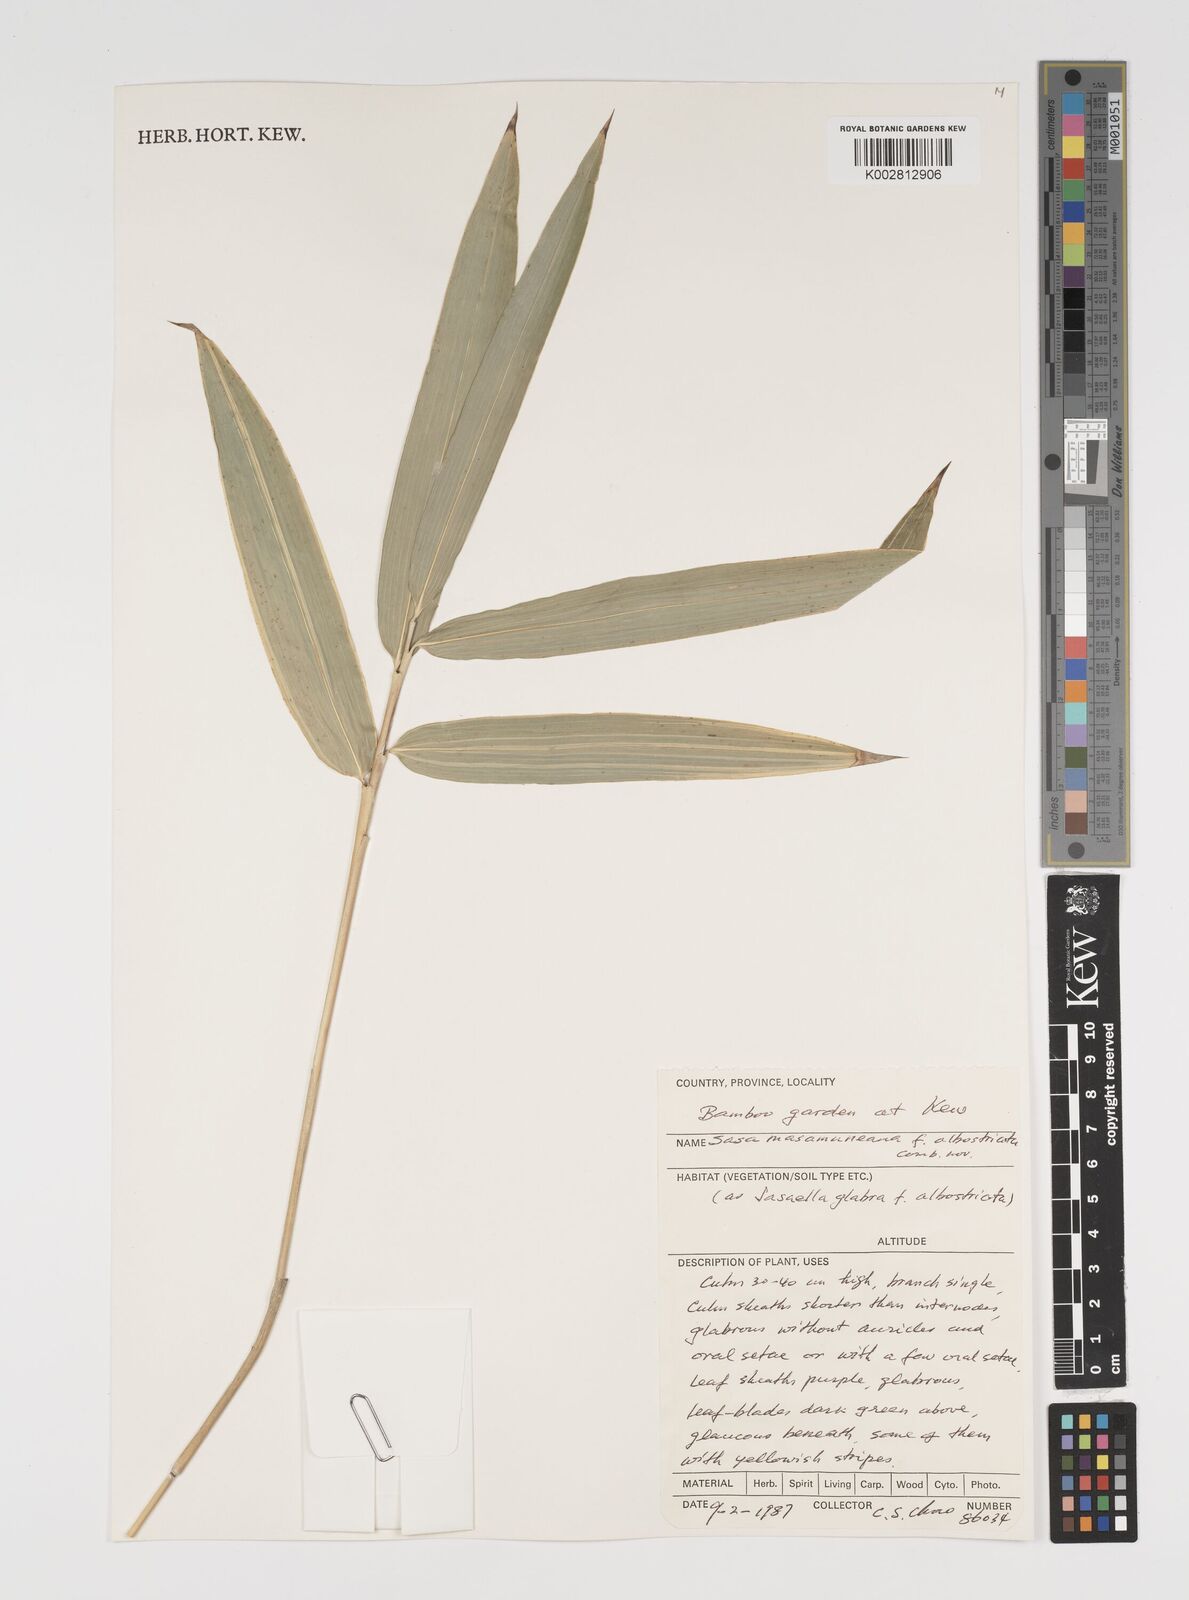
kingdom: Plantae
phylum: Tracheophyta
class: Liliopsida
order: Poales
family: Poaceae
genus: Sasa
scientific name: Sasa
